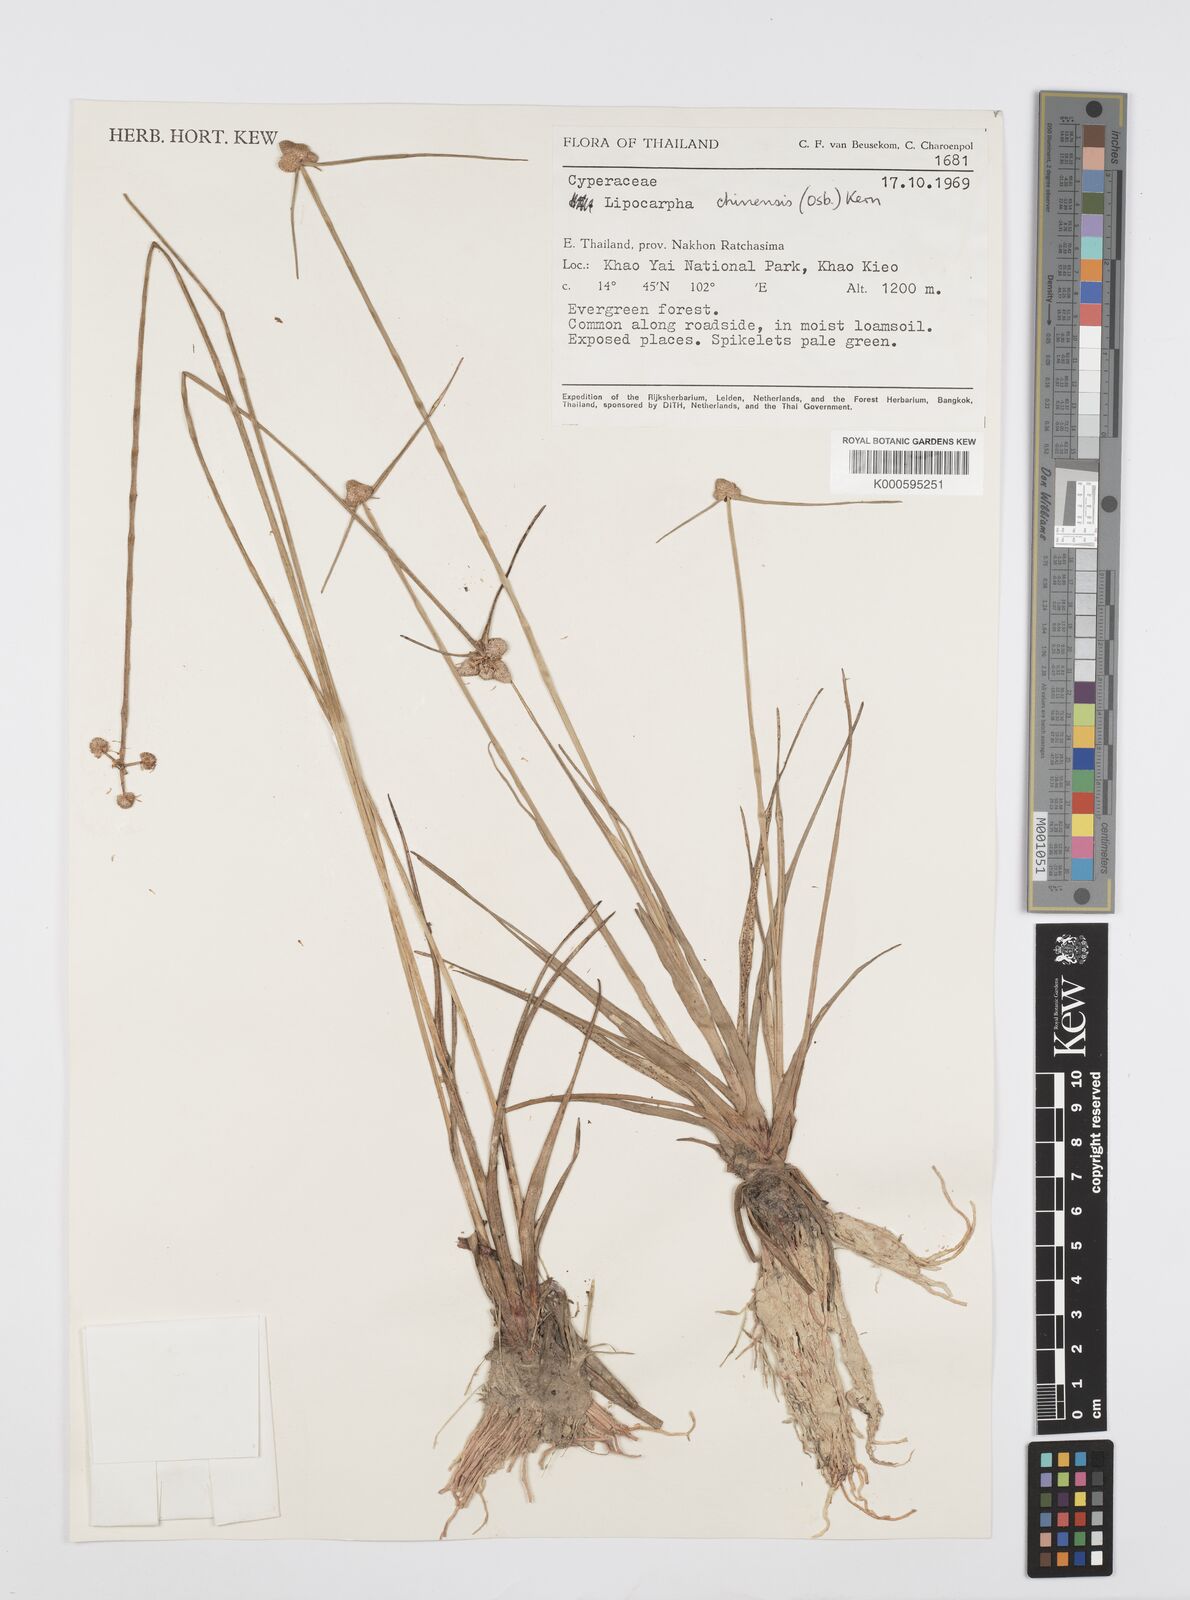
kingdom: Plantae
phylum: Tracheophyta
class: Liliopsida
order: Poales
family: Cyperaceae
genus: Cyperus
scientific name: Cyperus albescens
